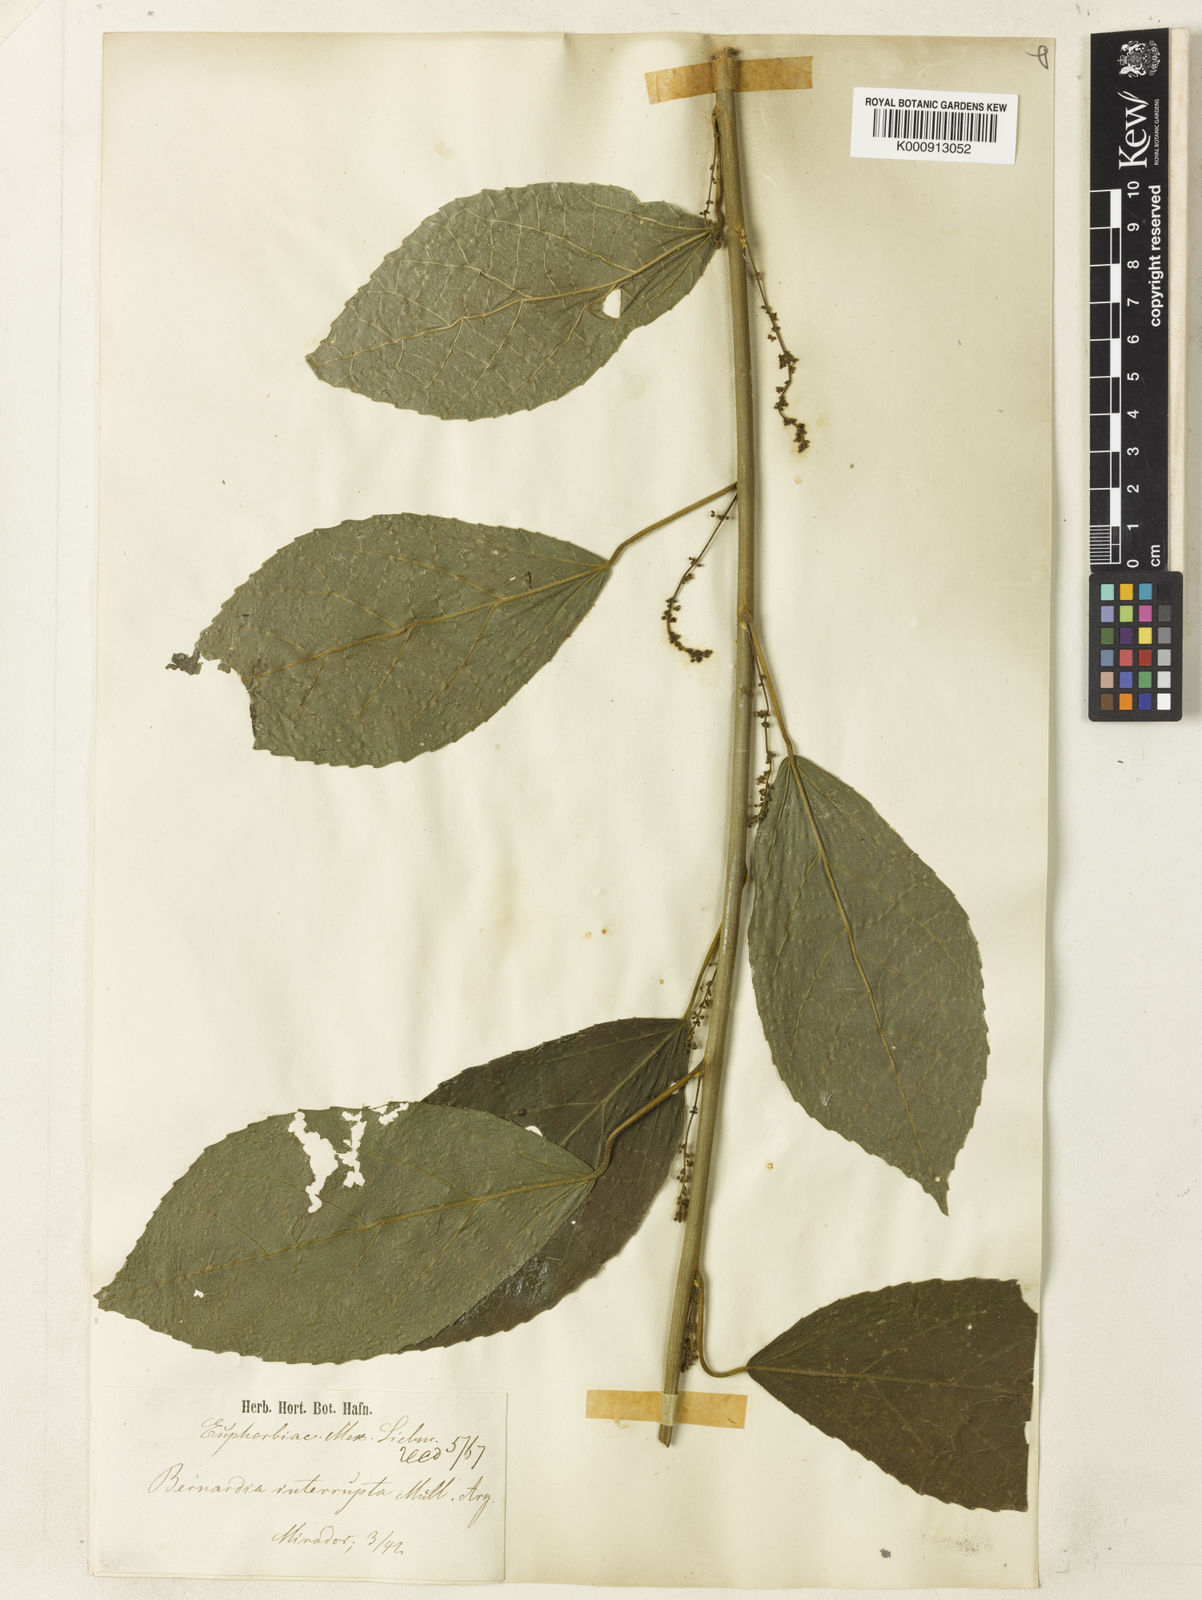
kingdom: Plantae
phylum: Tracheophyta
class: Magnoliopsida
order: Malpighiales
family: Euphorbiaceae
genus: Bernardia
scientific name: Bernardia
